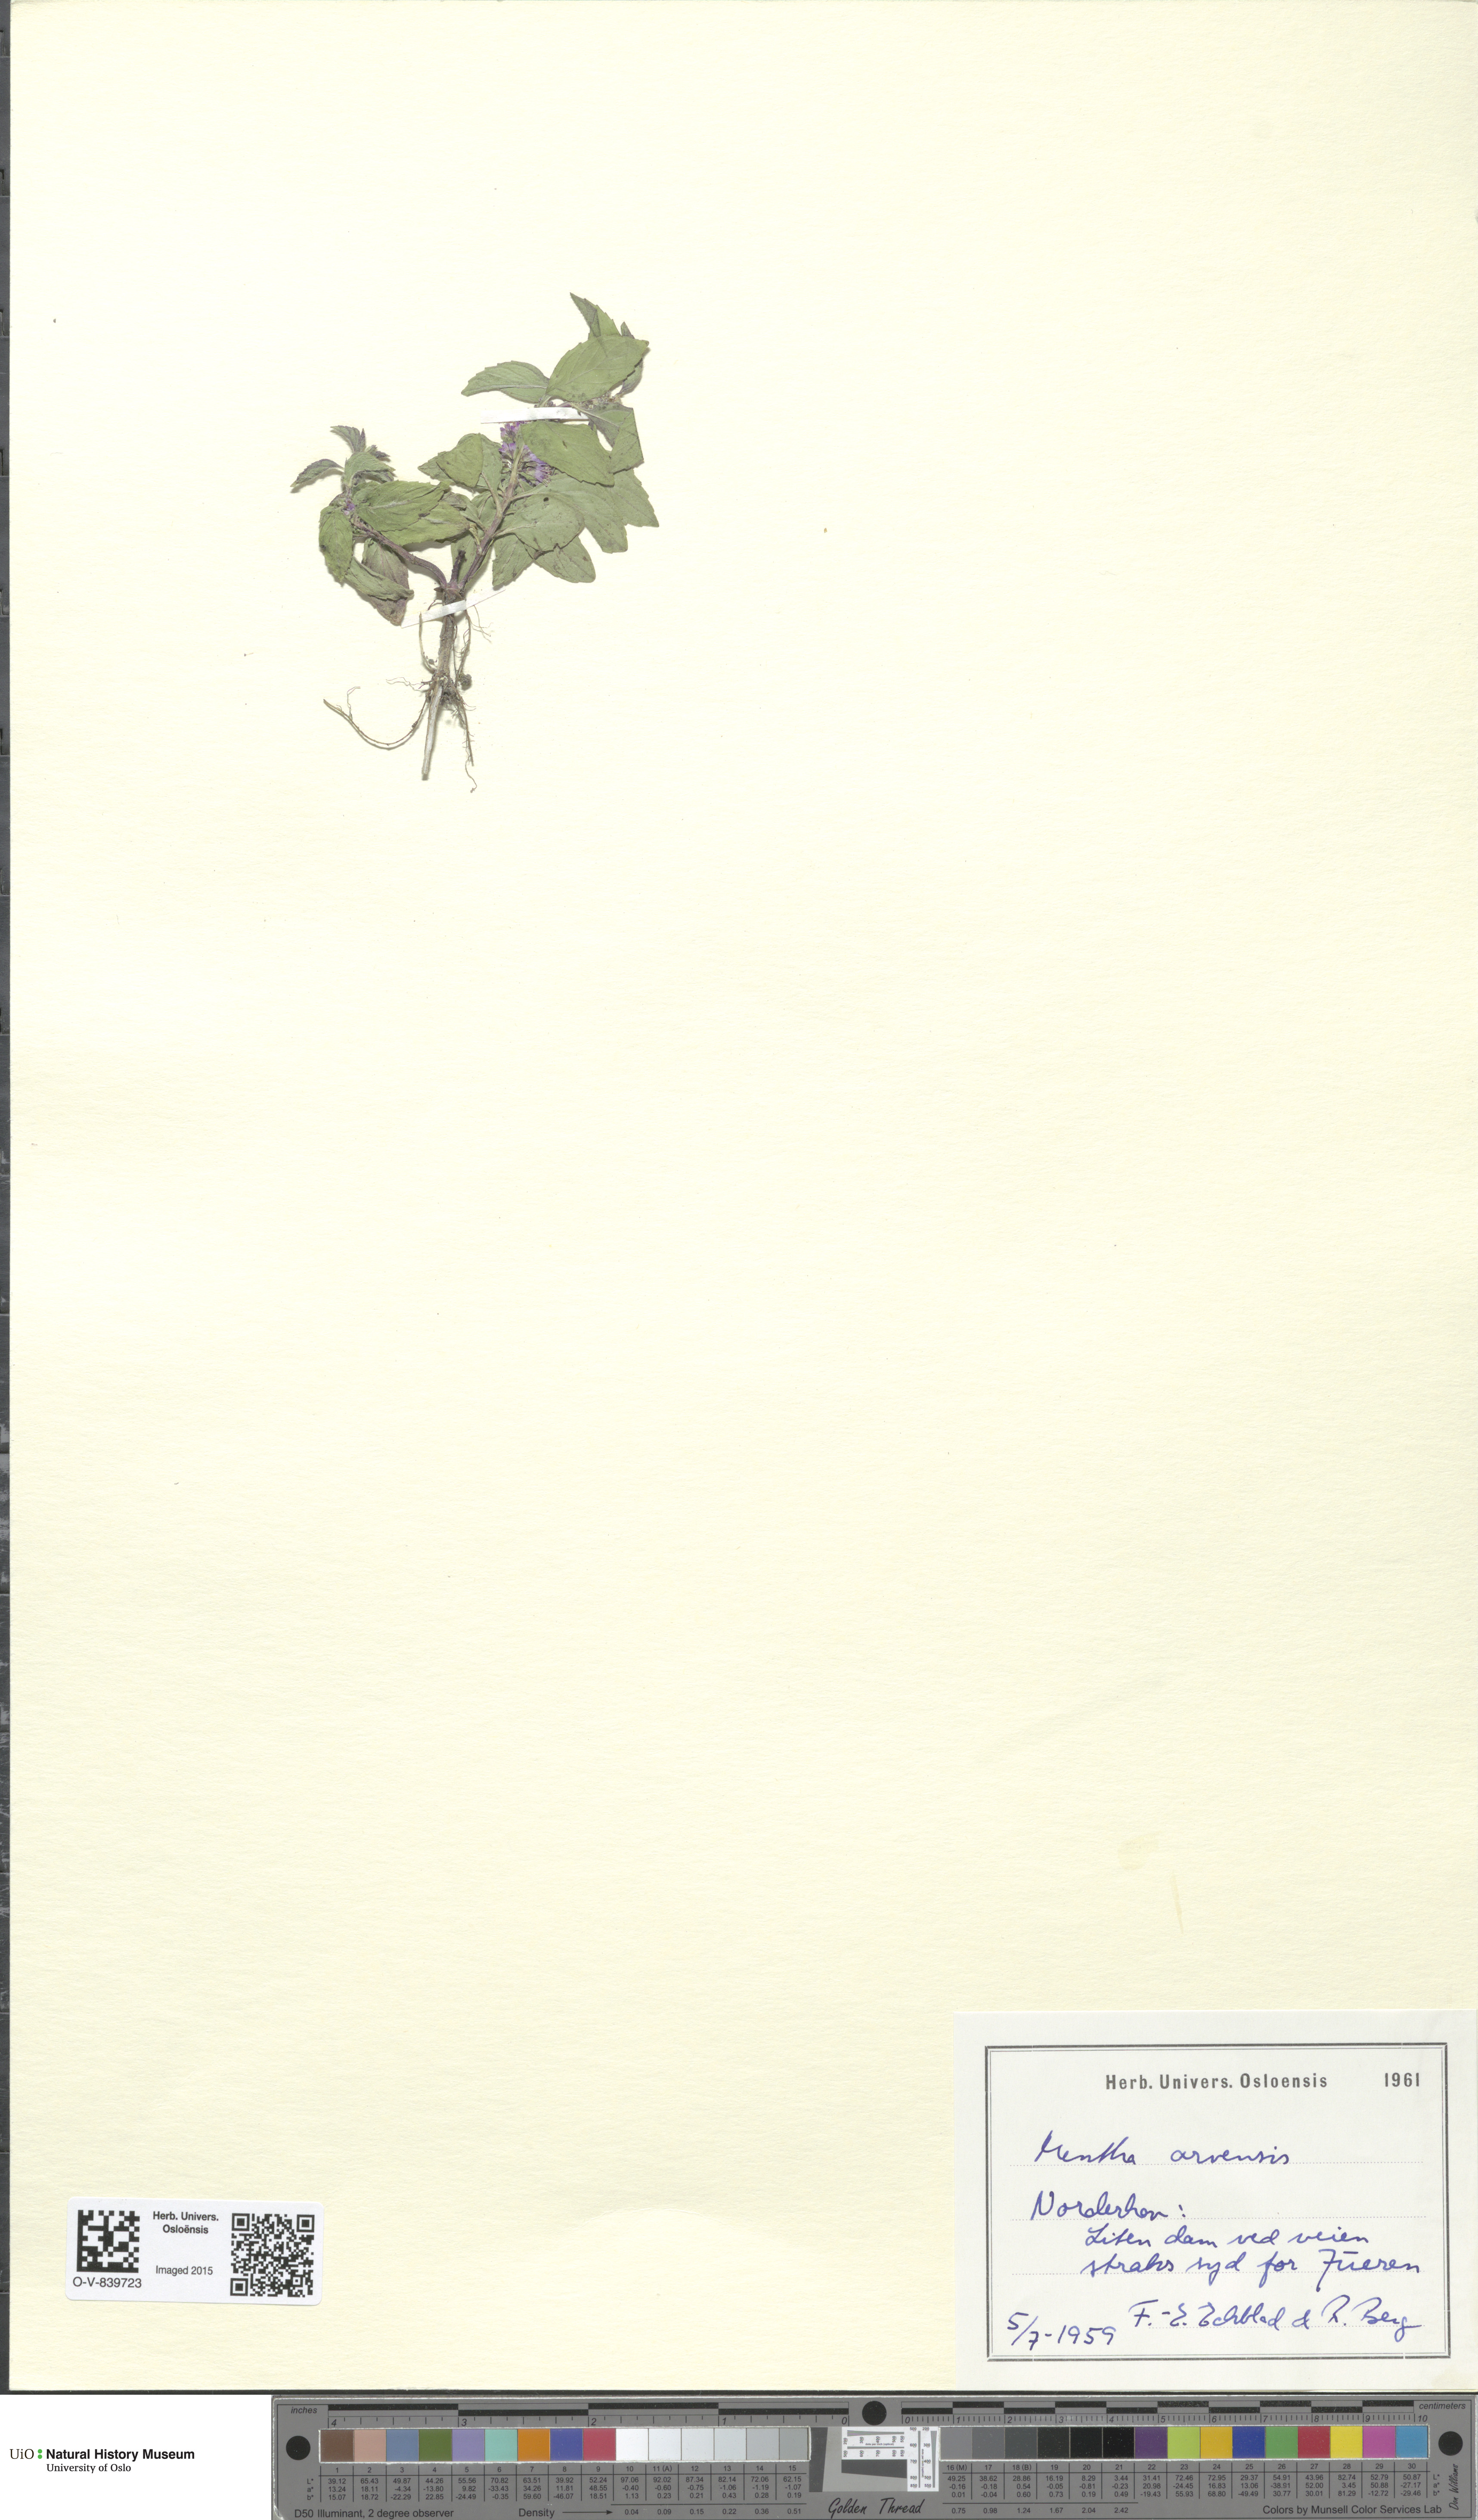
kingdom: Plantae
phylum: Tracheophyta
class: Magnoliopsida
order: Lamiales
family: Lamiaceae
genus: Mentha
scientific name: Mentha arvensis
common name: Corn mint
